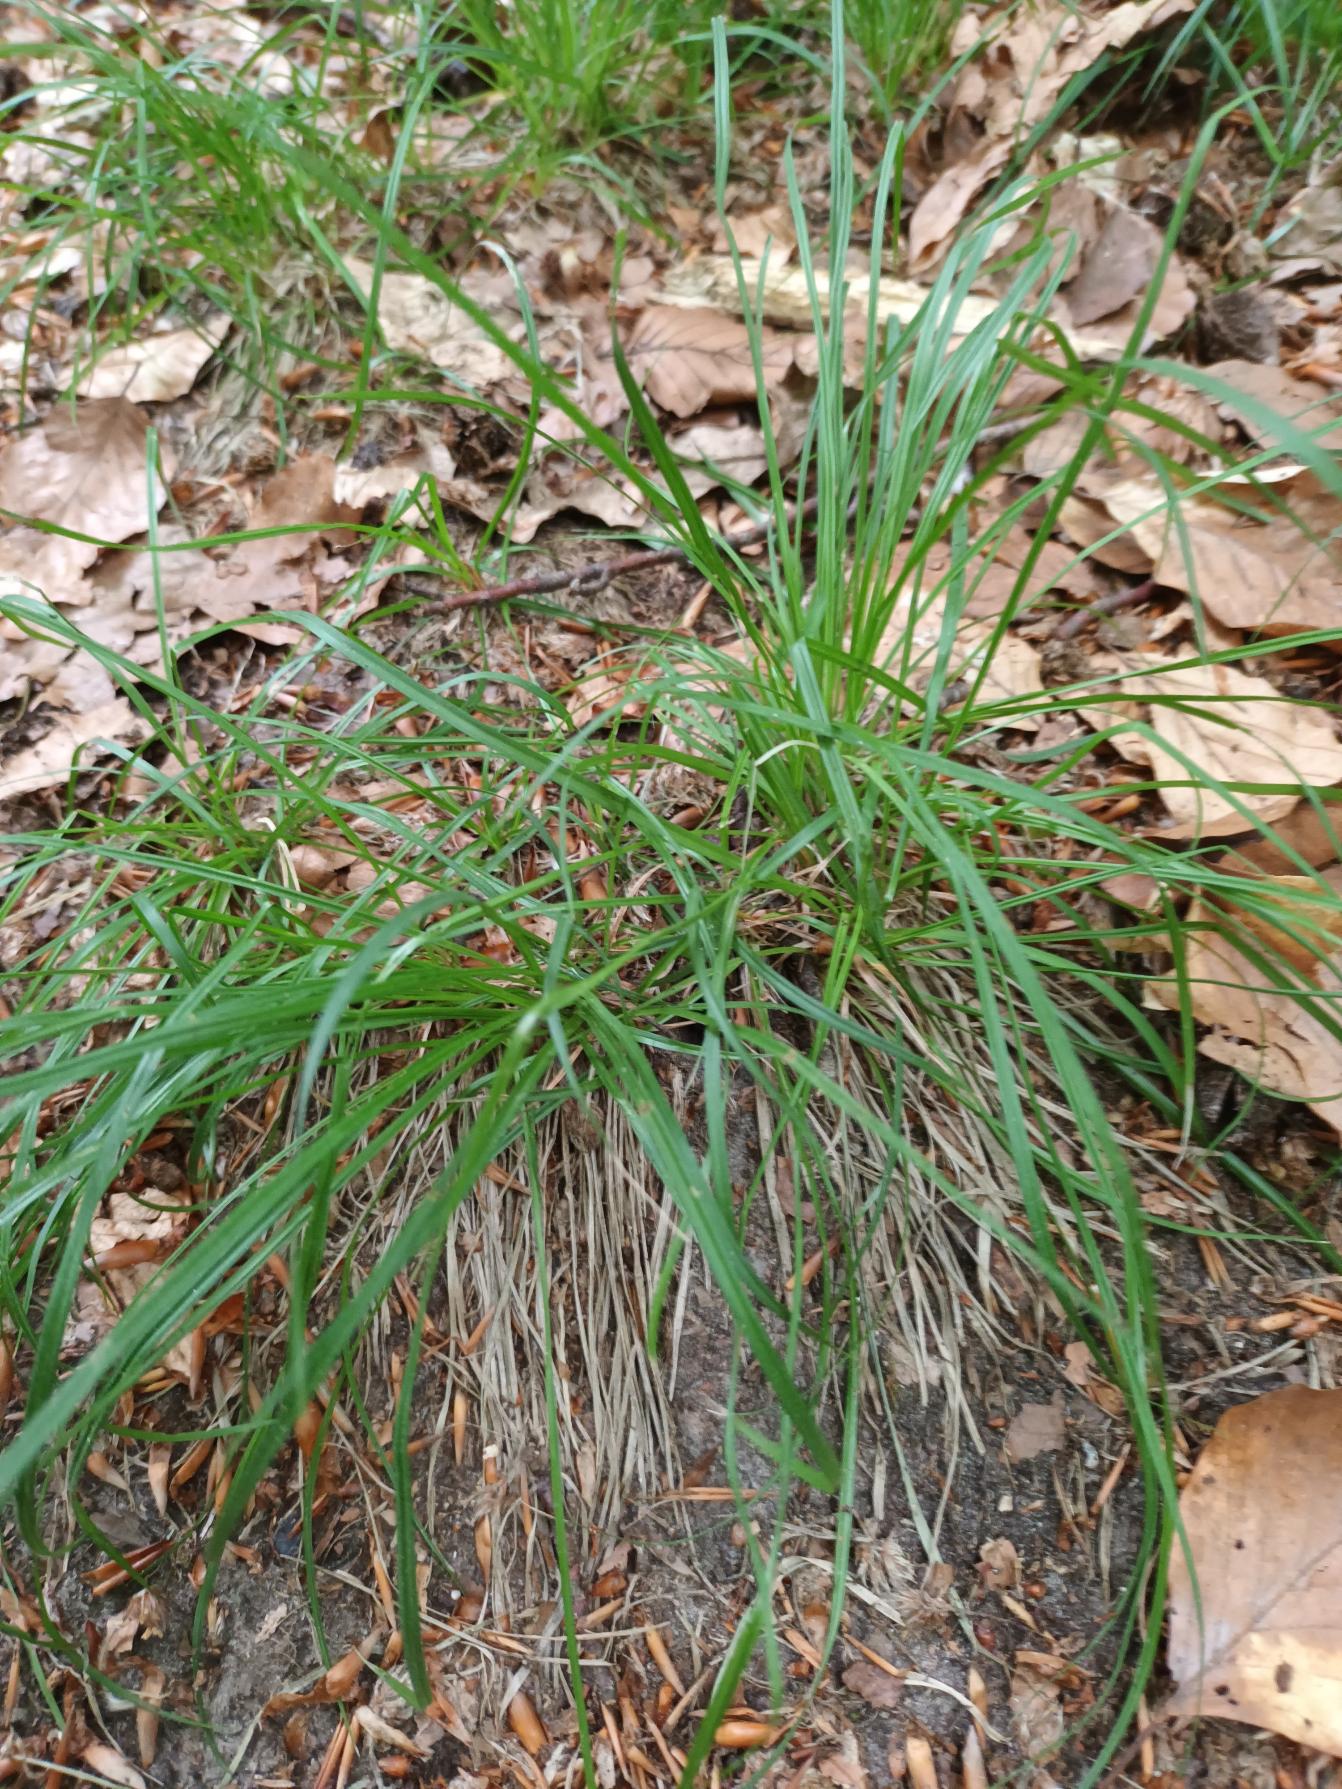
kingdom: Plantae
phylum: Tracheophyta
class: Liliopsida
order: Poales
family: Cyperaceae
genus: Carex
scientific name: Carex montana
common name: Bakke-star
